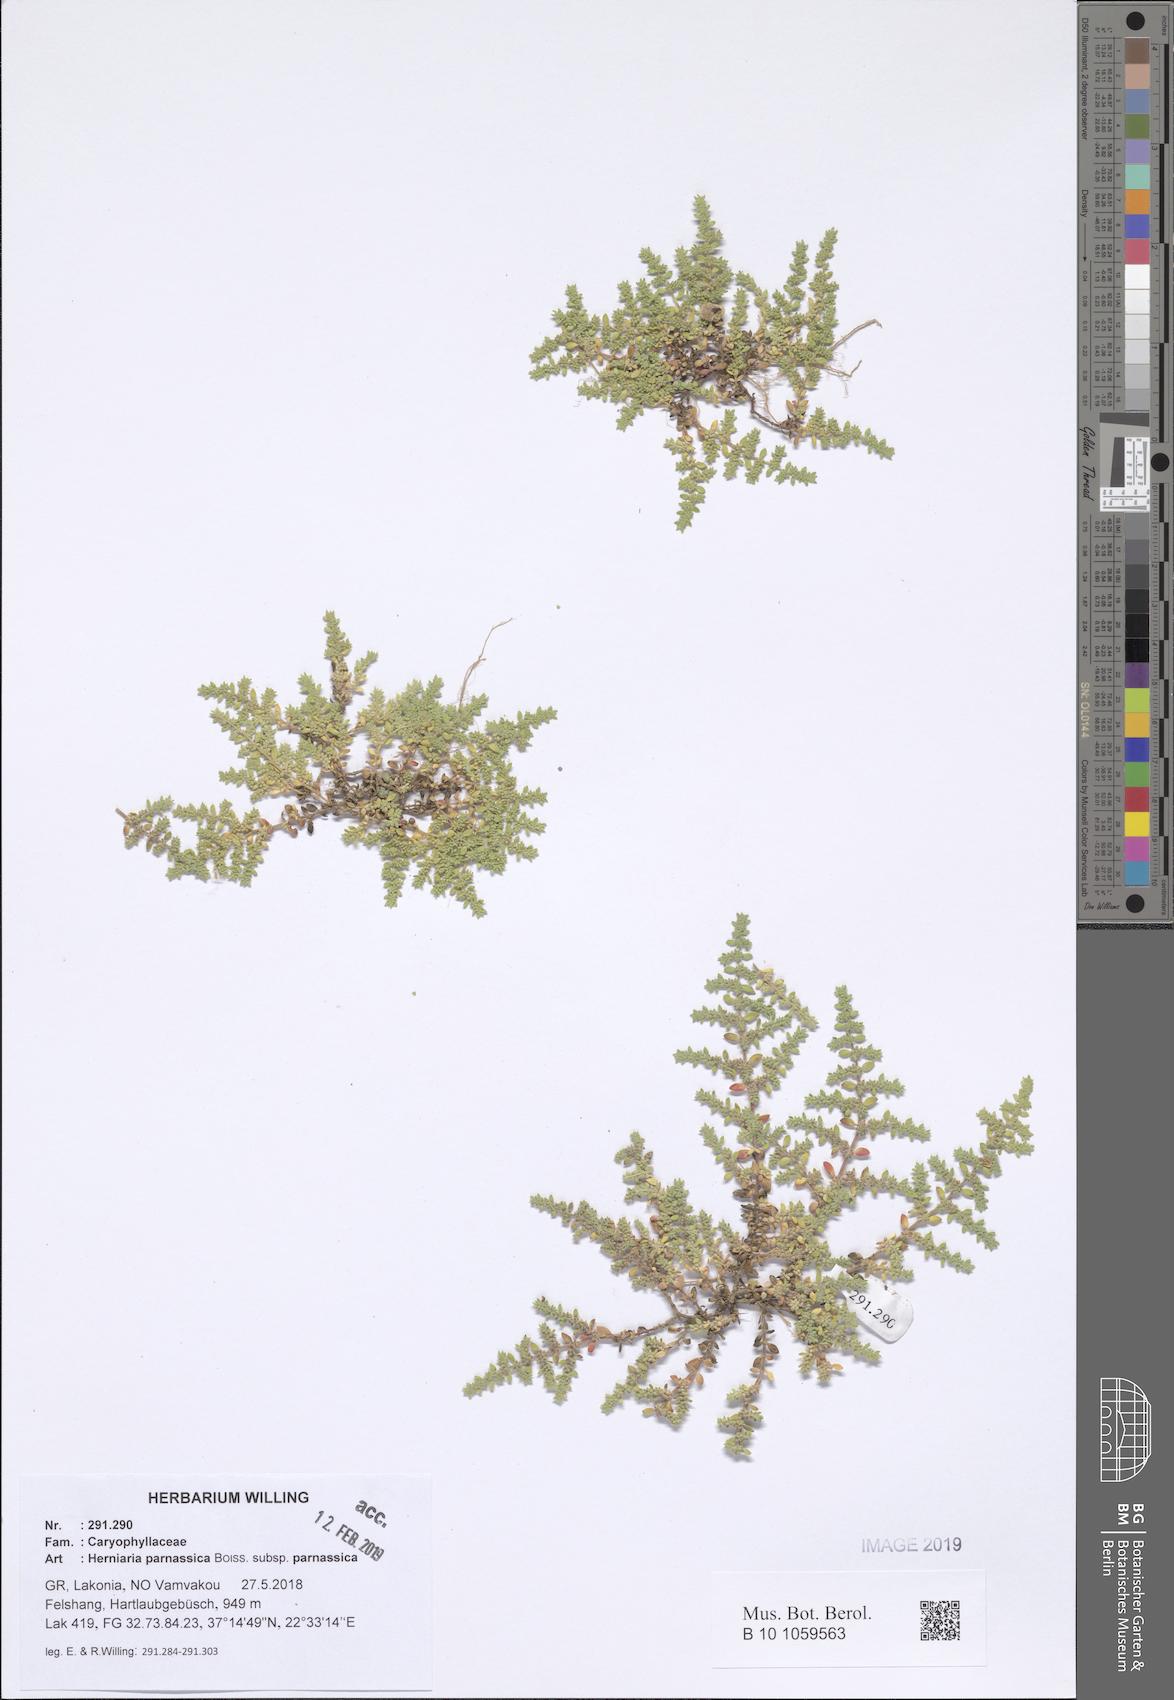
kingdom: Plantae
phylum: Tracheophyta
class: Magnoliopsida
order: Caryophyllales
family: Caryophyllaceae
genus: Herniaria
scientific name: Herniaria parnassica
